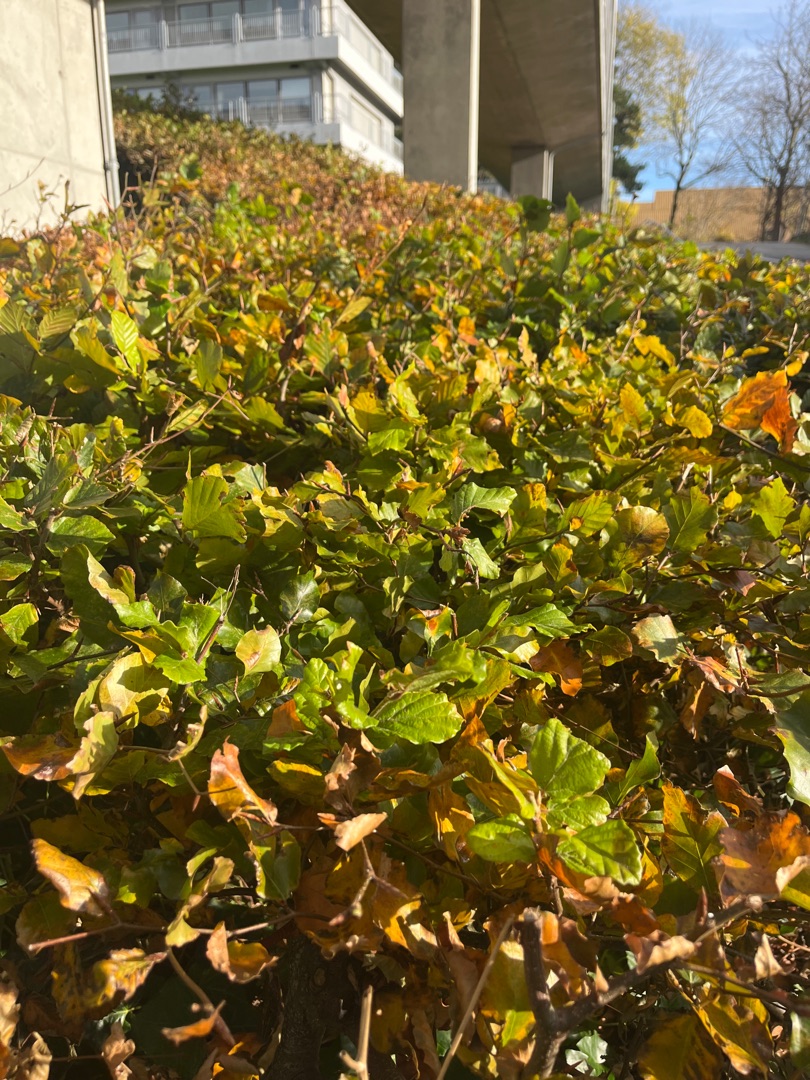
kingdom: Plantae
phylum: Tracheophyta
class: Magnoliopsida
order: Fagales
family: Fagaceae
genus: Fagus
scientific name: Fagus sylvatica
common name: Bøg
